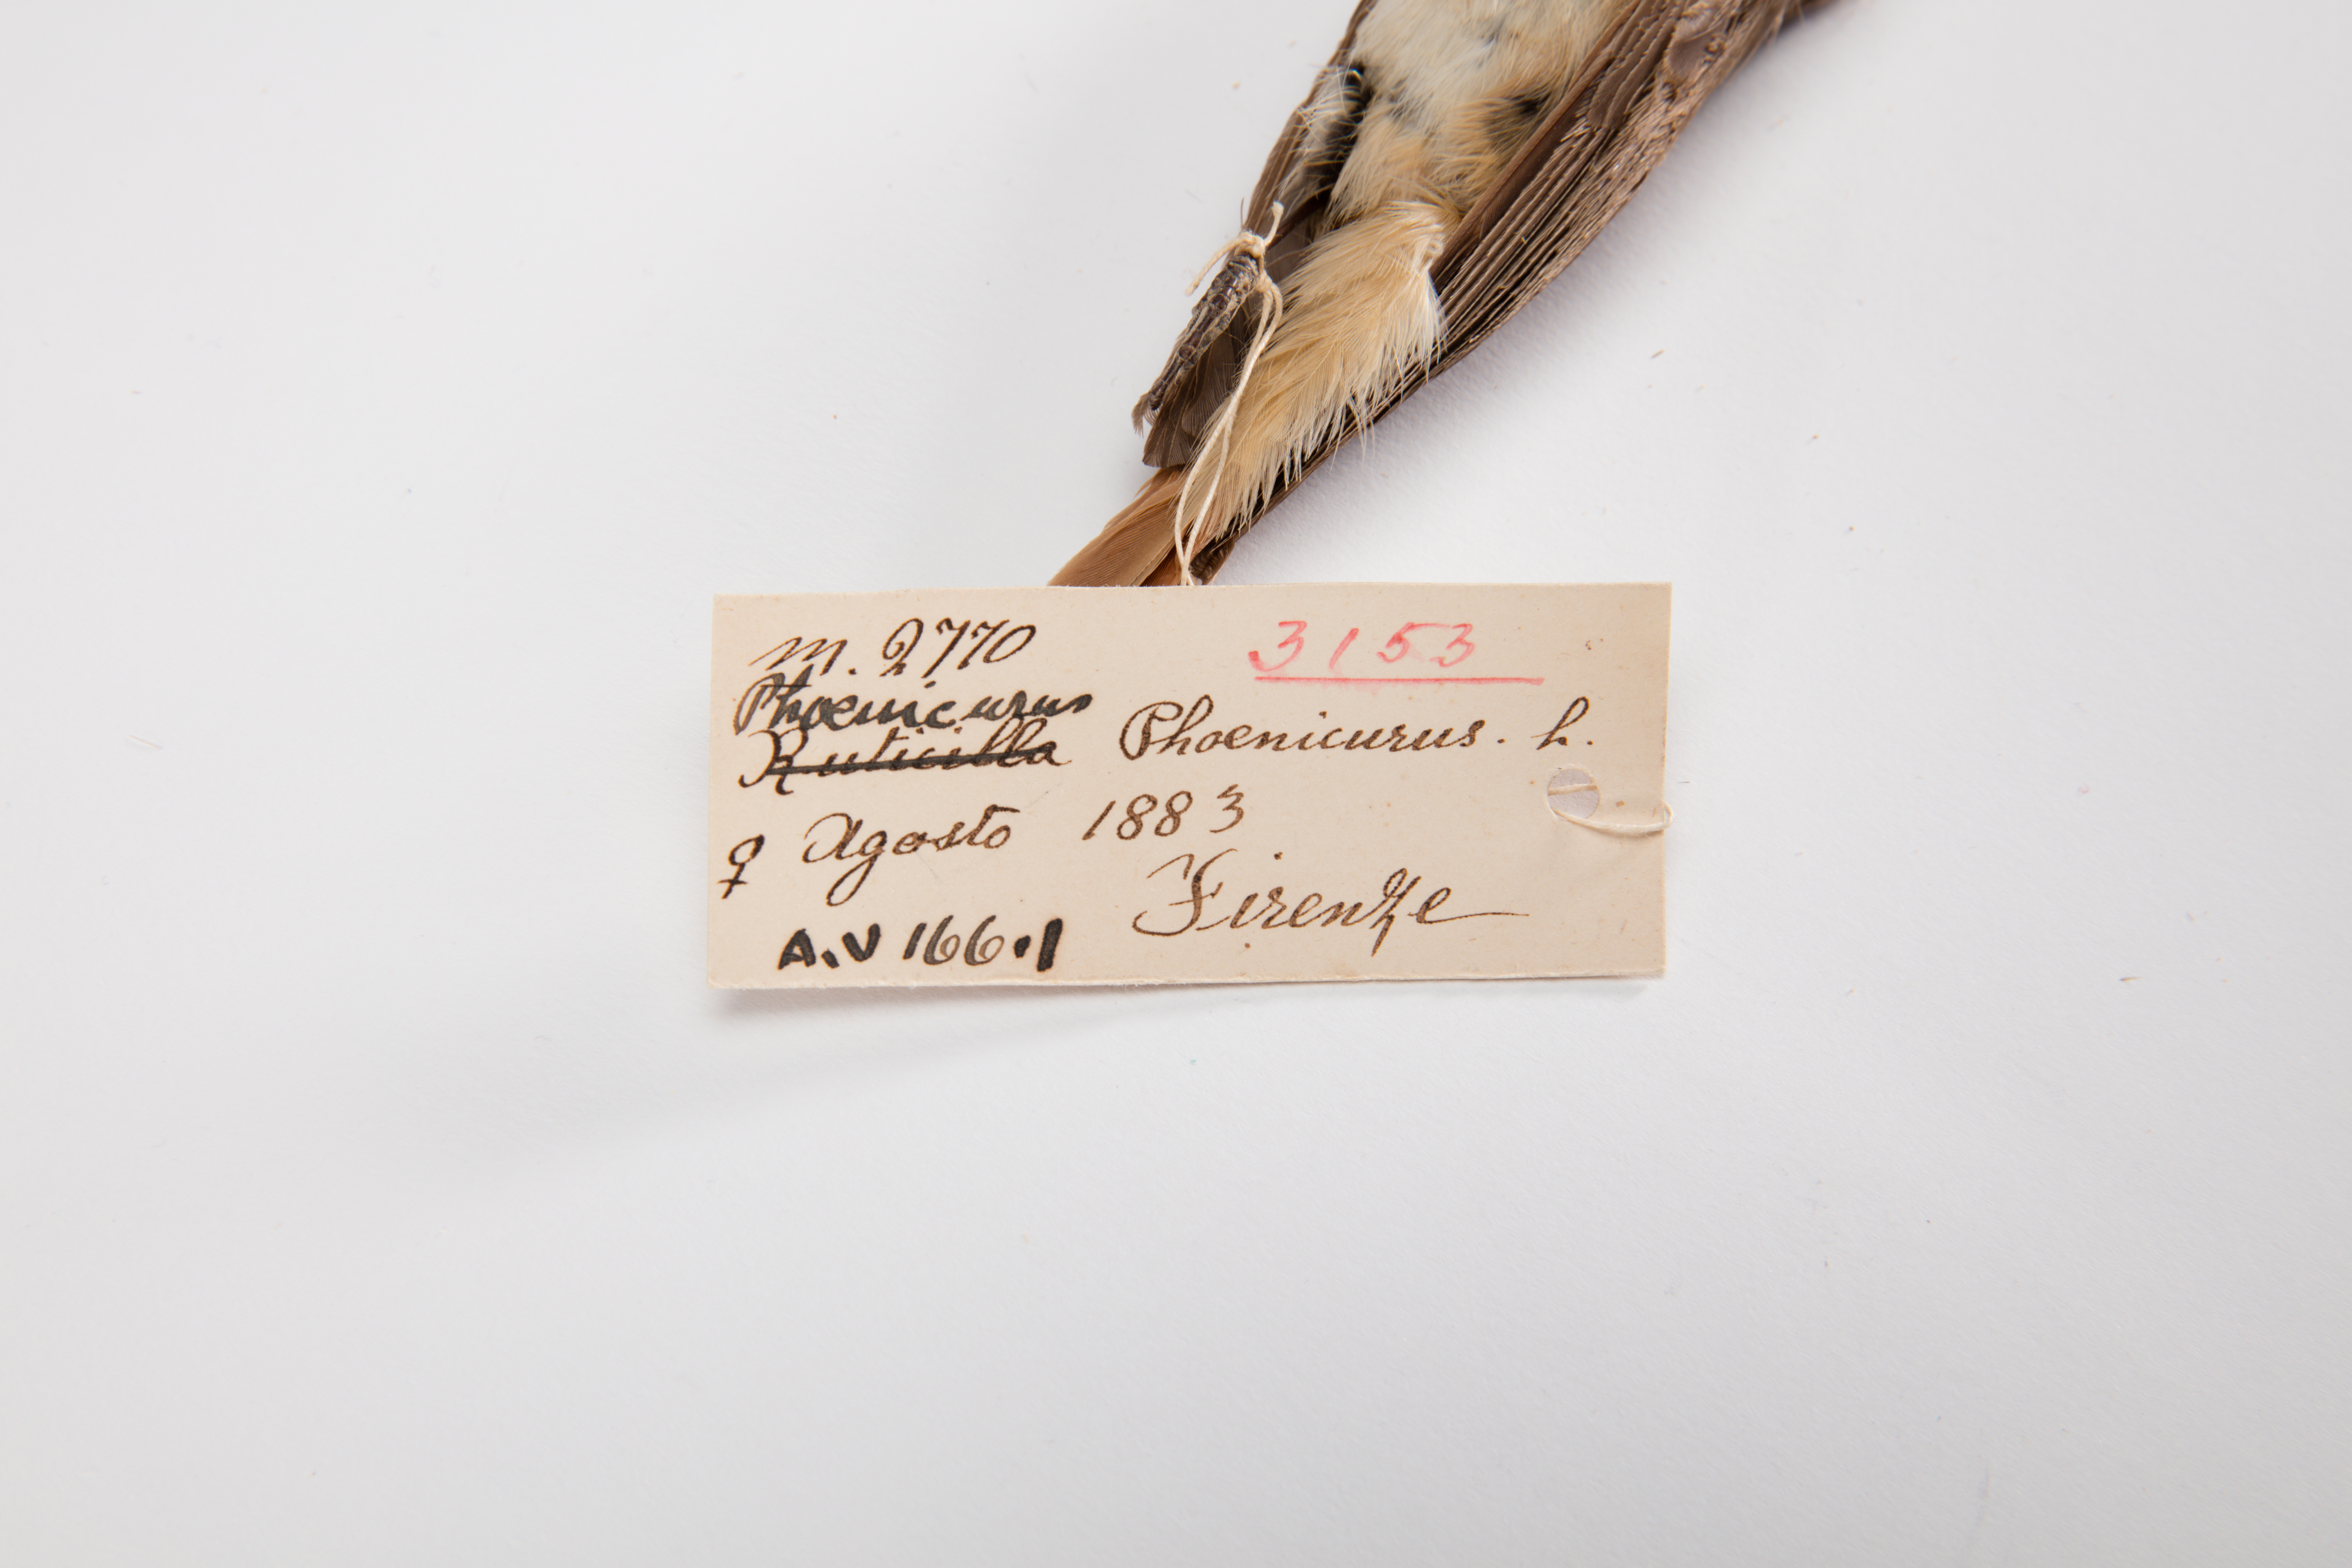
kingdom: Animalia
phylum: Chordata
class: Aves
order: Passeriformes
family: Muscicapidae
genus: Phoenicurus
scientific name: Phoenicurus phoenicurus
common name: Common redstart
